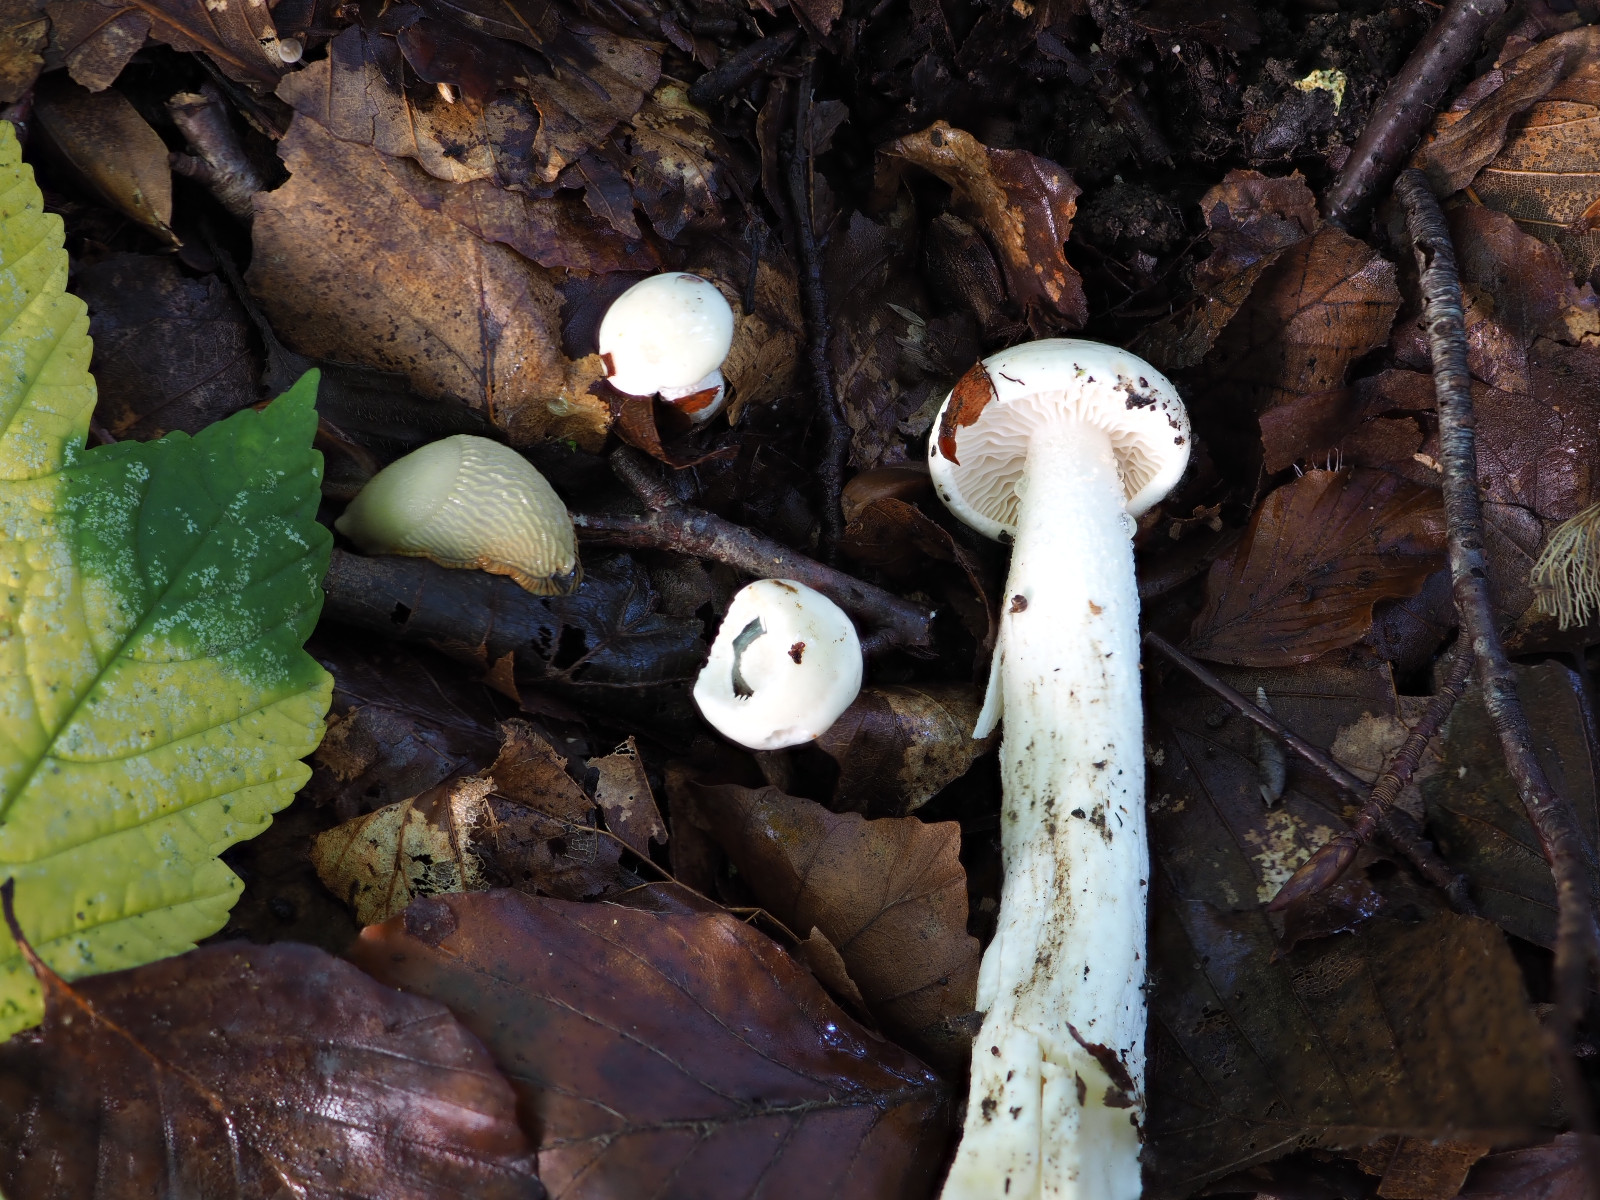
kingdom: Fungi
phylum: Basidiomycota
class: Agaricomycetes
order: Agaricales
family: Hygrophoraceae
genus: Hygrophorus
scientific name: Hygrophorus discoxanthus
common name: ildelugtende sneglehat
